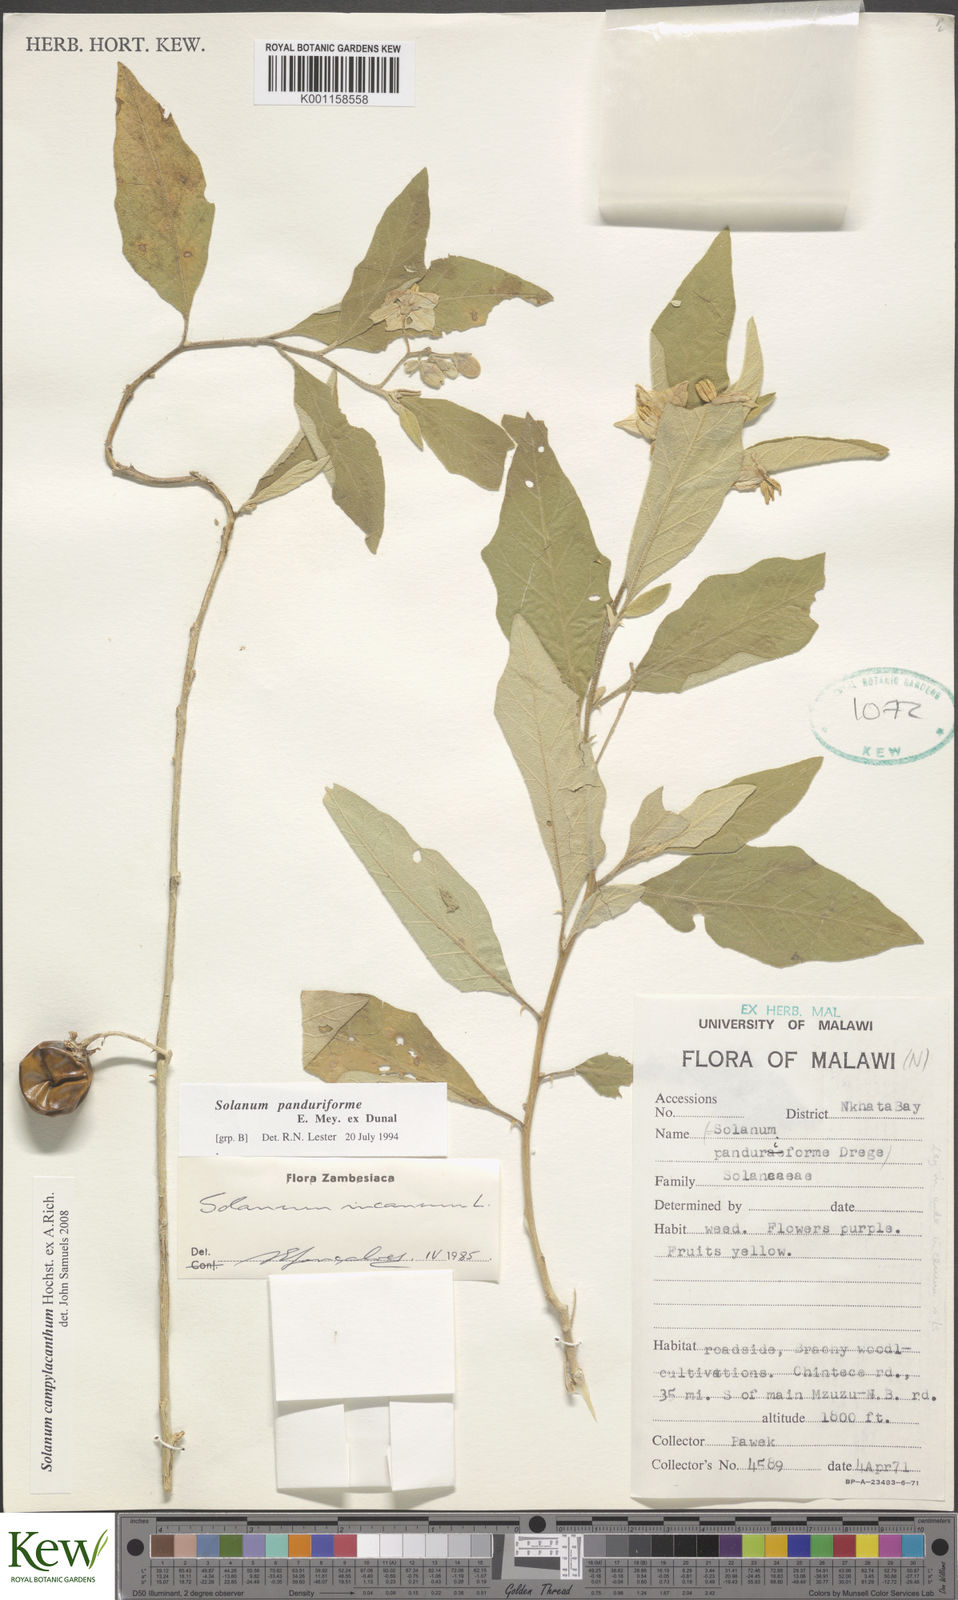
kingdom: Plantae
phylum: Tracheophyta
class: Magnoliopsida
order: Solanales
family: Solanaceae
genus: Solanum
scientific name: Solanum campylacanthum
